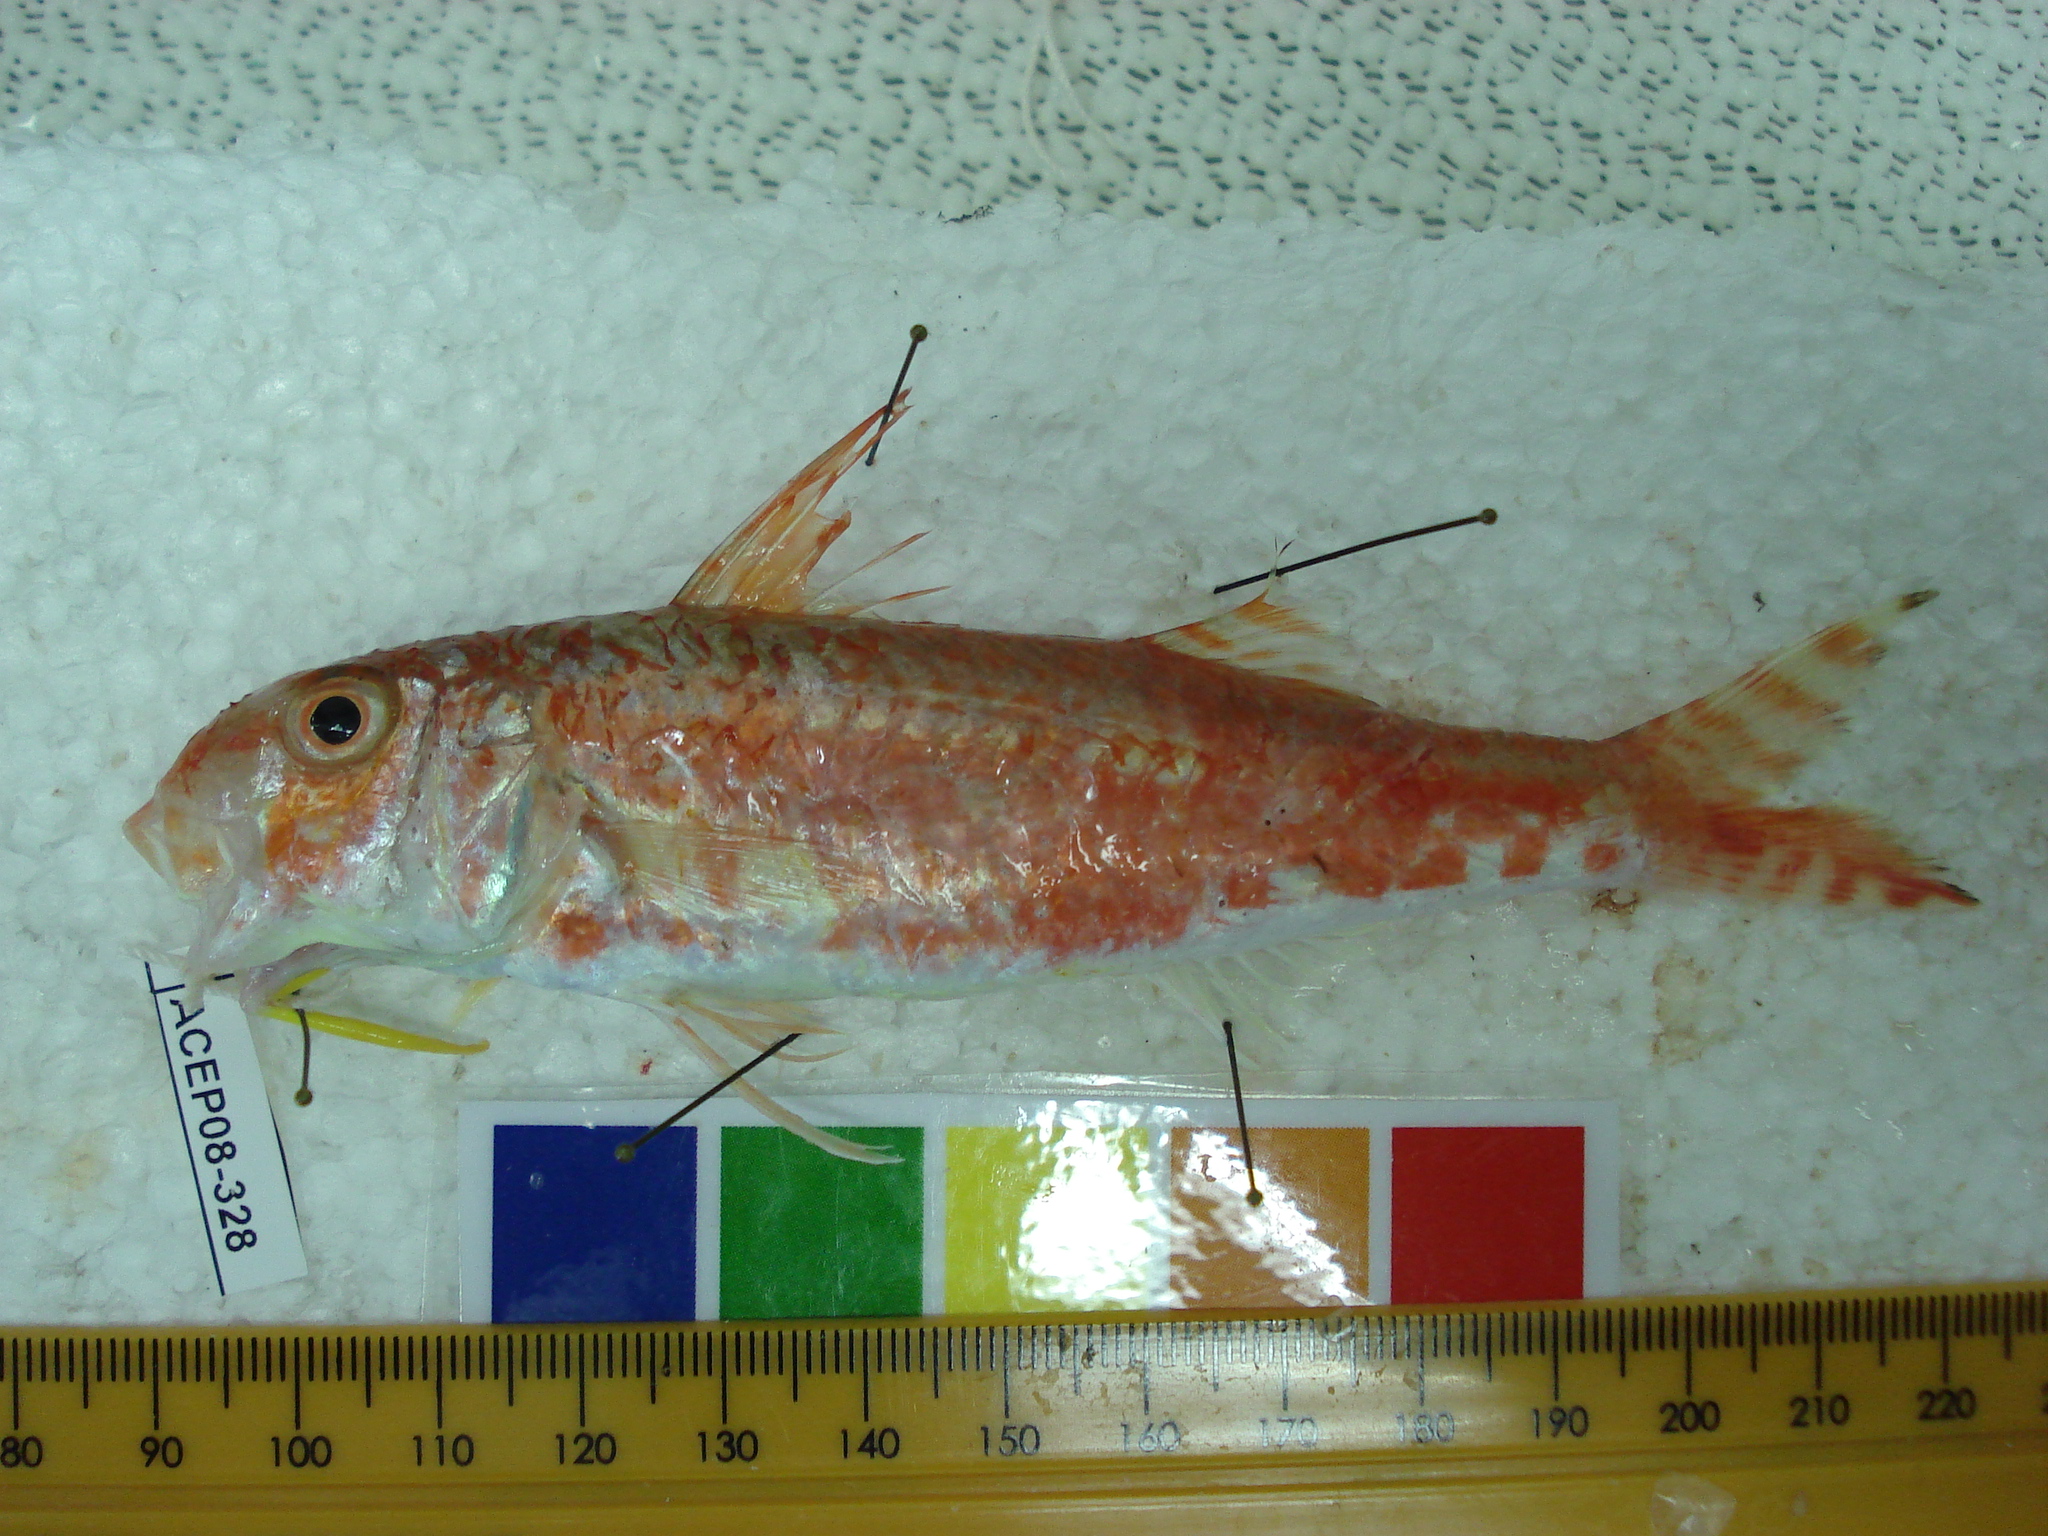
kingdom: Animalia
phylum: Chordata
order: Perciformes
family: Mullidae
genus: Upeneus
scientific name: Upeneus guttatus
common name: Spotted goatfish
